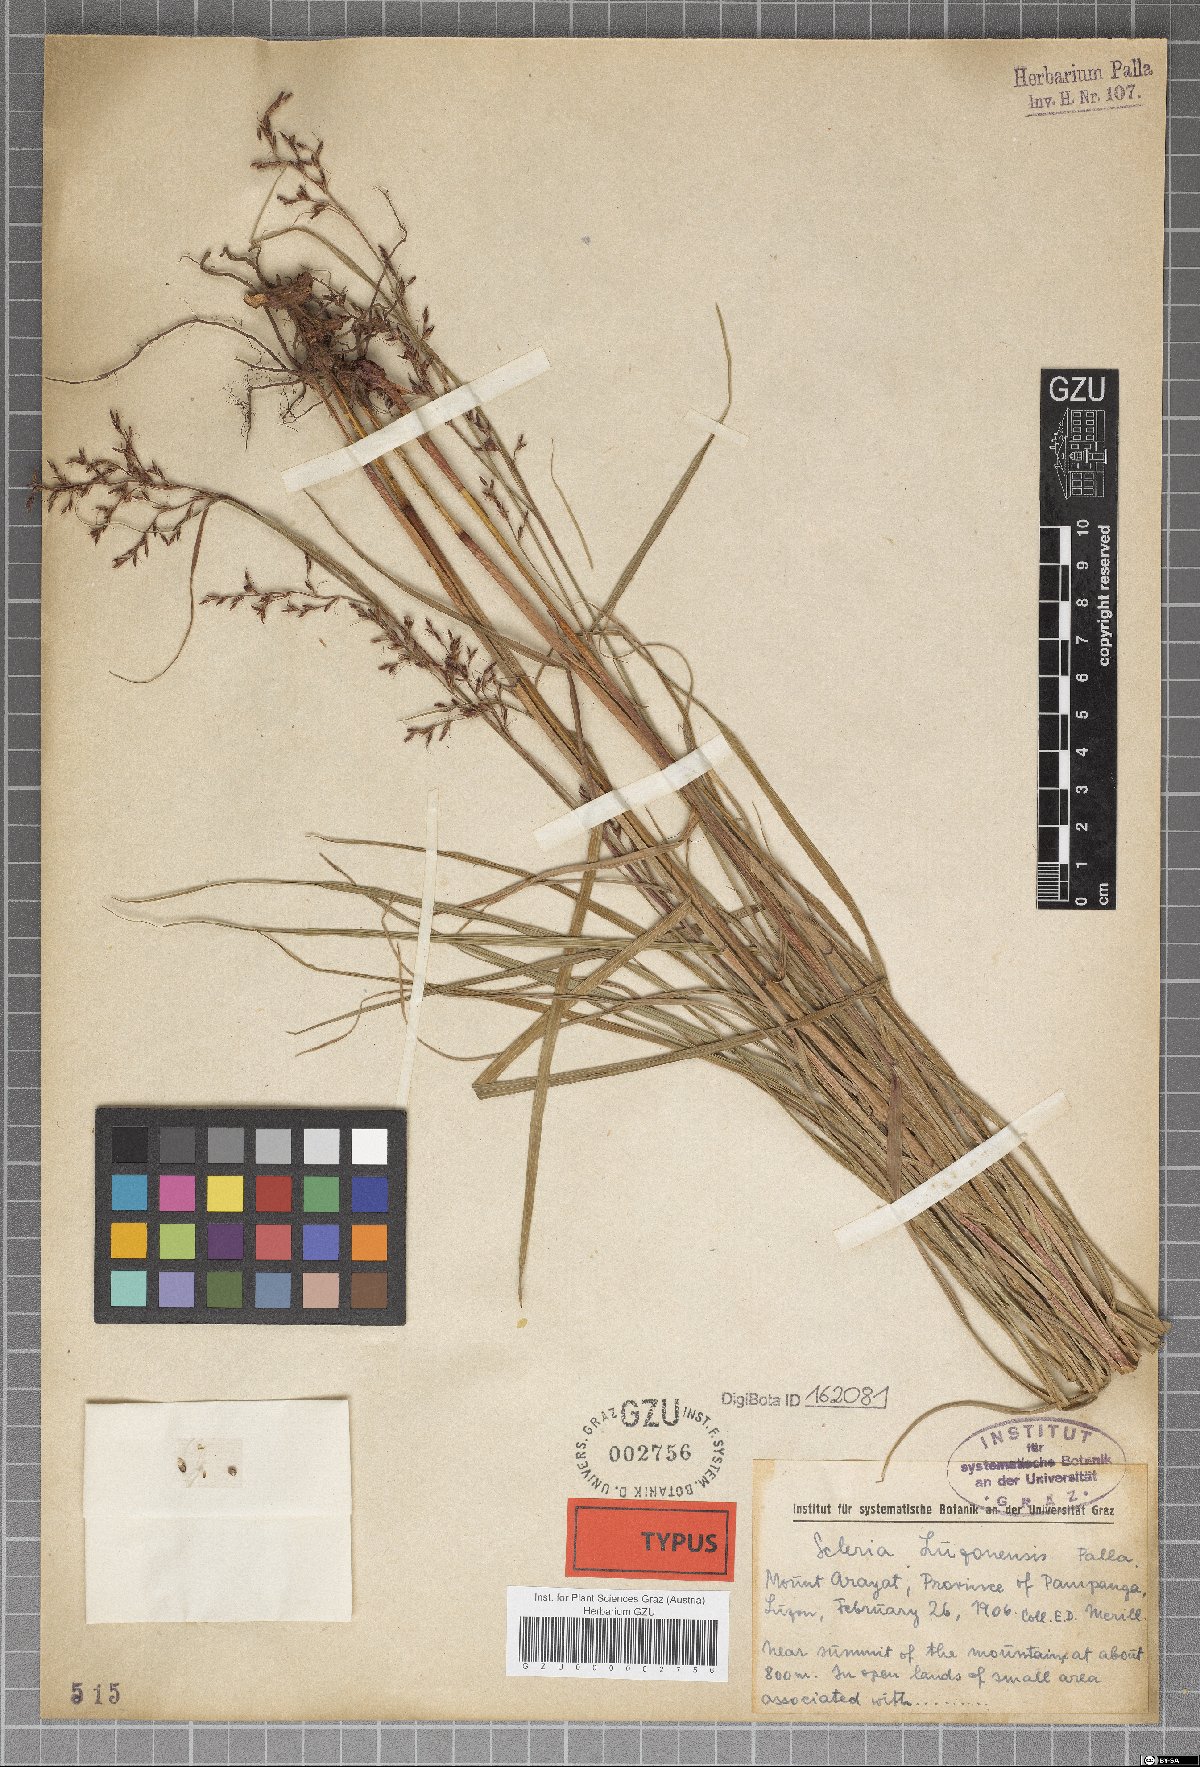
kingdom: Plantae
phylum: Tracheophyta
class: Liliopsida
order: Poales
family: Cyperaceae
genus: Scleria
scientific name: Scleria terrestris
